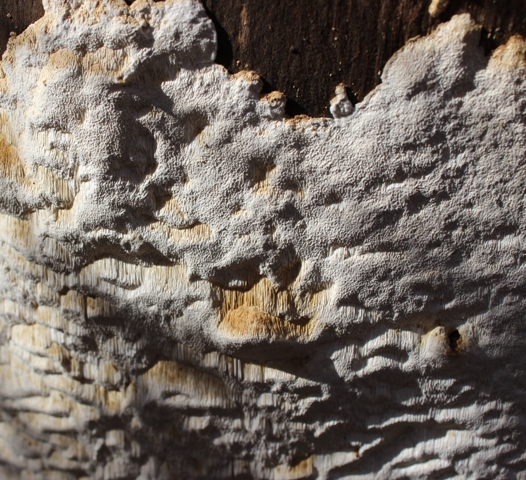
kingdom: Fungi
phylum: Basidiomycota
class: Agaricomycetes
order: Polyporales
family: Fomitopsidaceae
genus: Neoantrodia
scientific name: Neoantrodia serialis
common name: række-sejporesvamp
